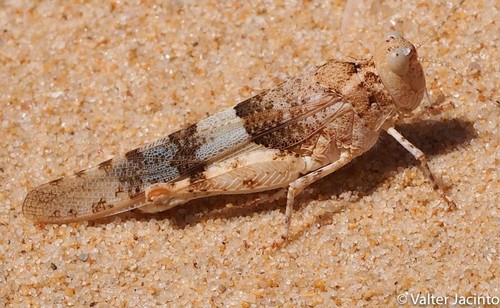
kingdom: Animalia
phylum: Arthropoda
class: Insecta
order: Orthoptera
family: Acrididae
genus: Sphingonotus
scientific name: Sphingonotus azurescens
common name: Azure sand grasshopper
